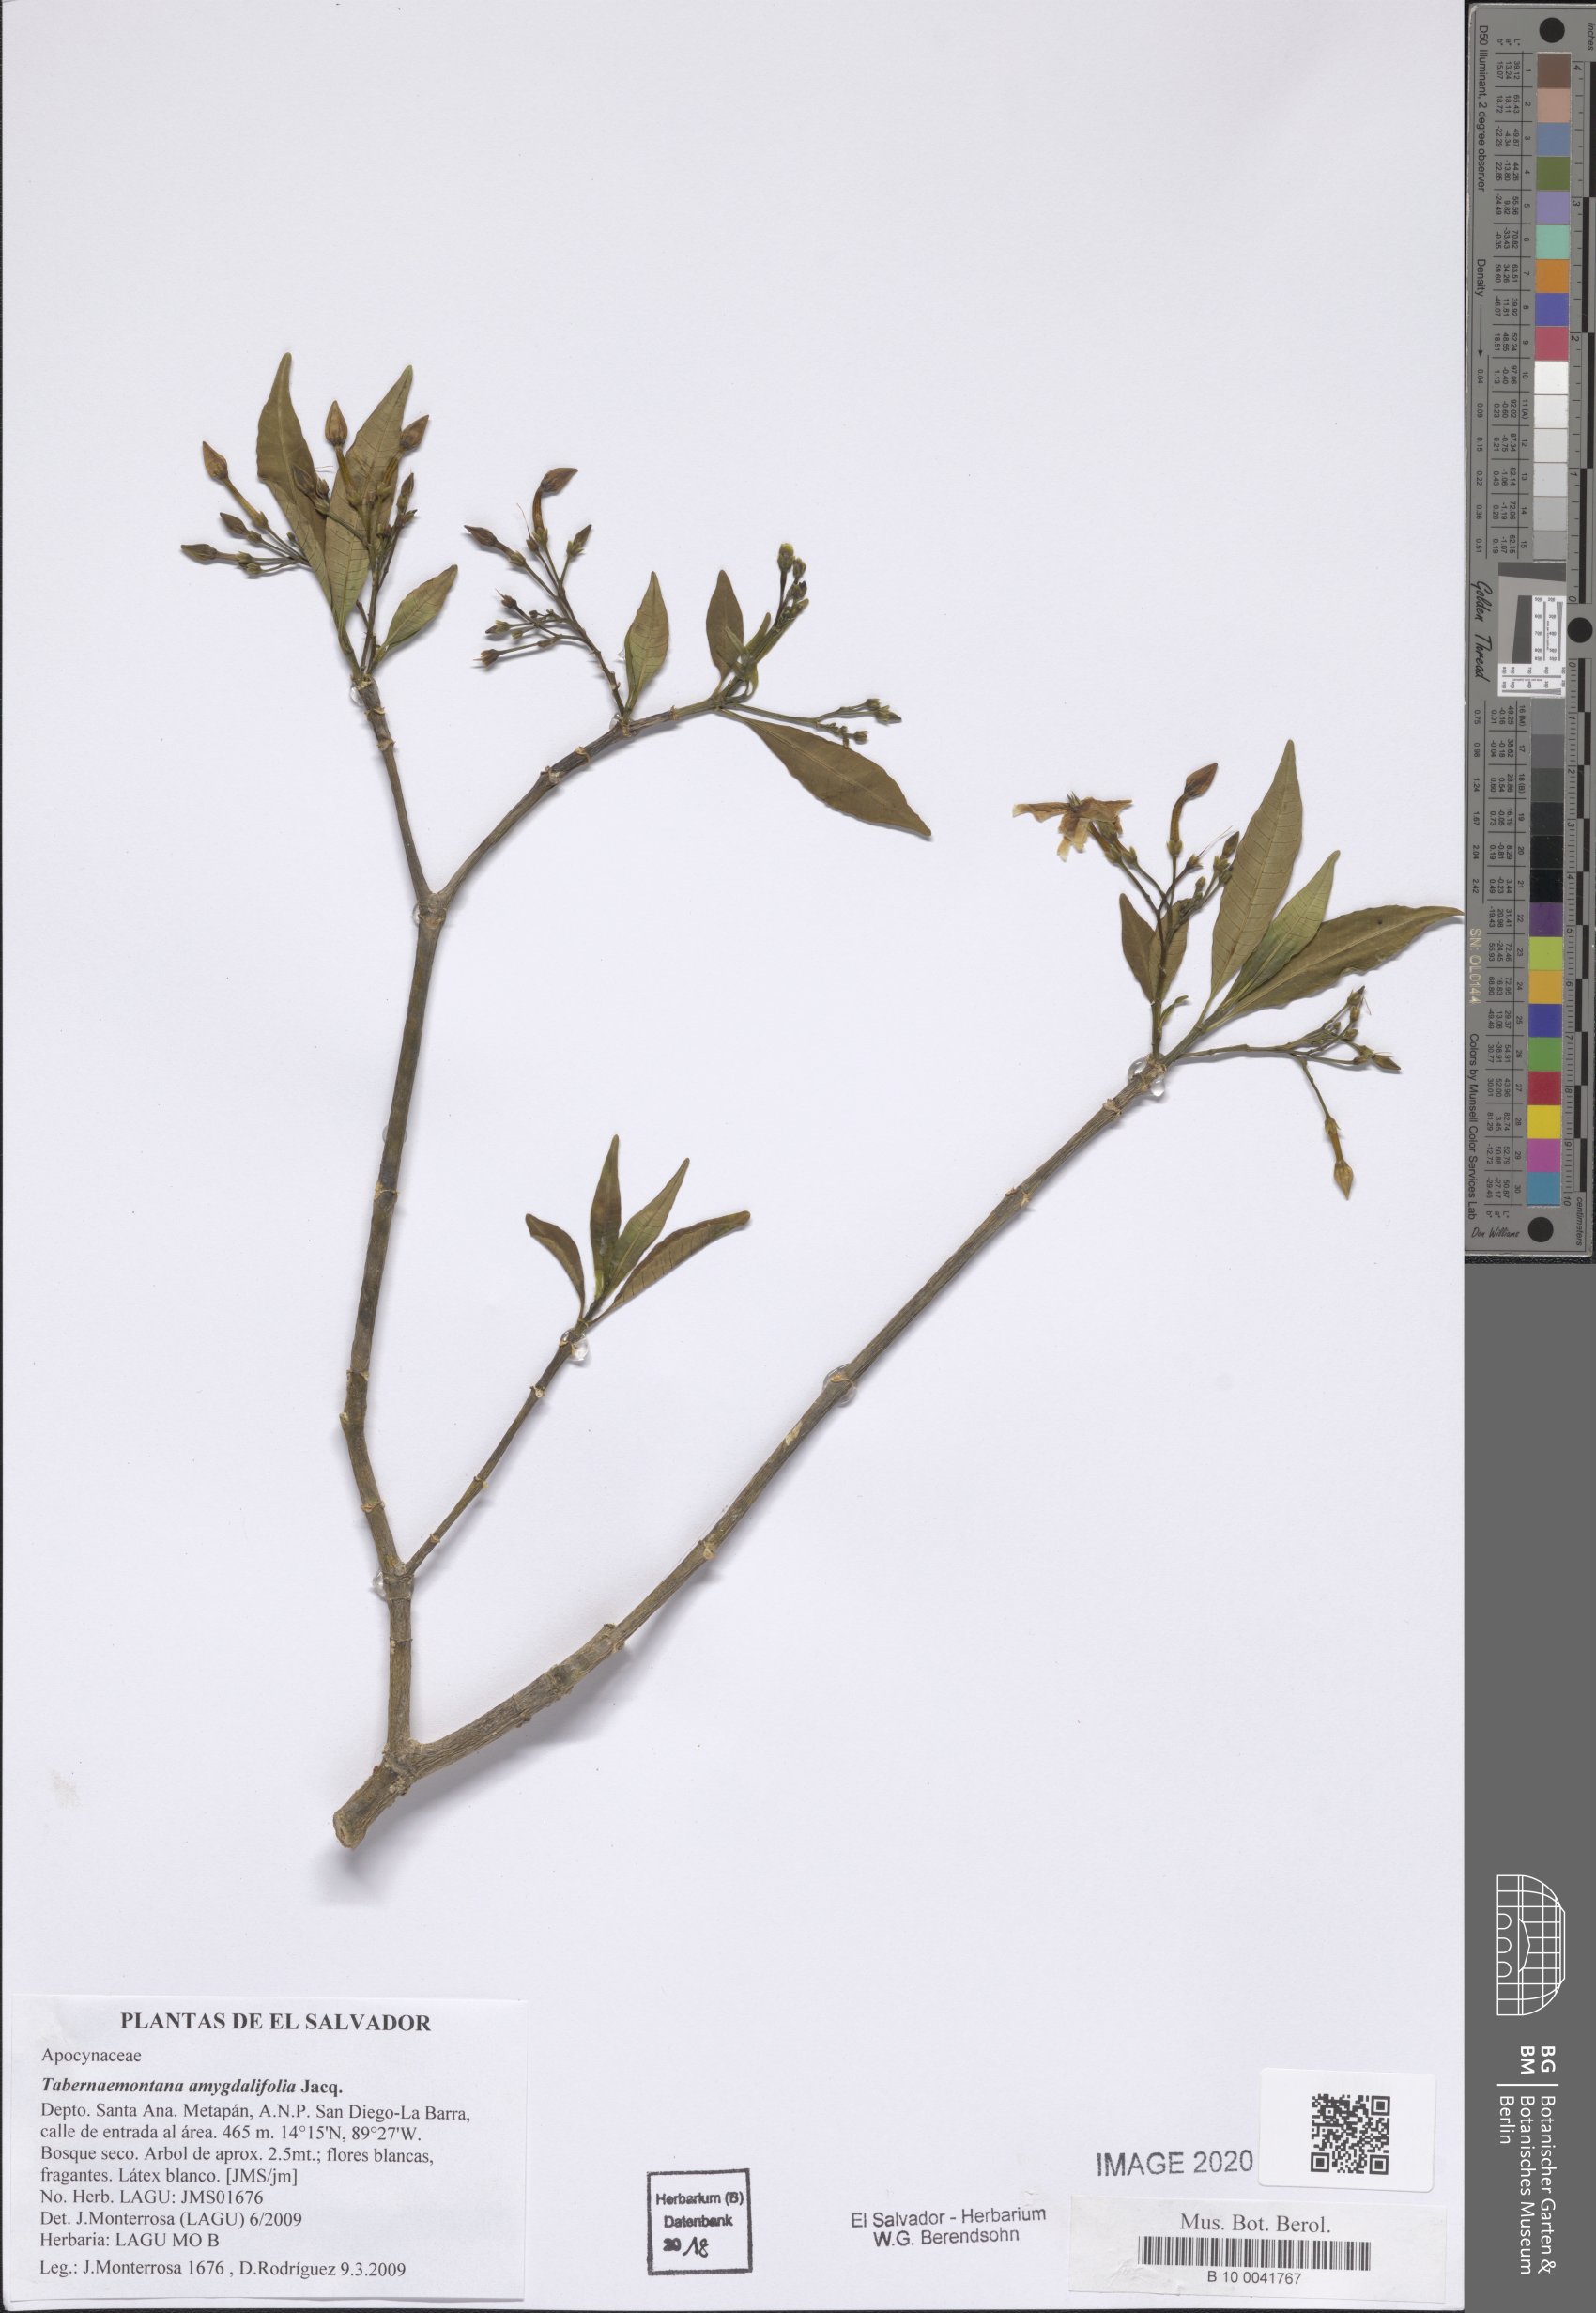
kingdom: Plantae
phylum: Tracheophyta
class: Magnoliopsida
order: Gentianales
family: Apocynaceae
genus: Tabernaemontana
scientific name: Tabernaemontana amygdalifolia
